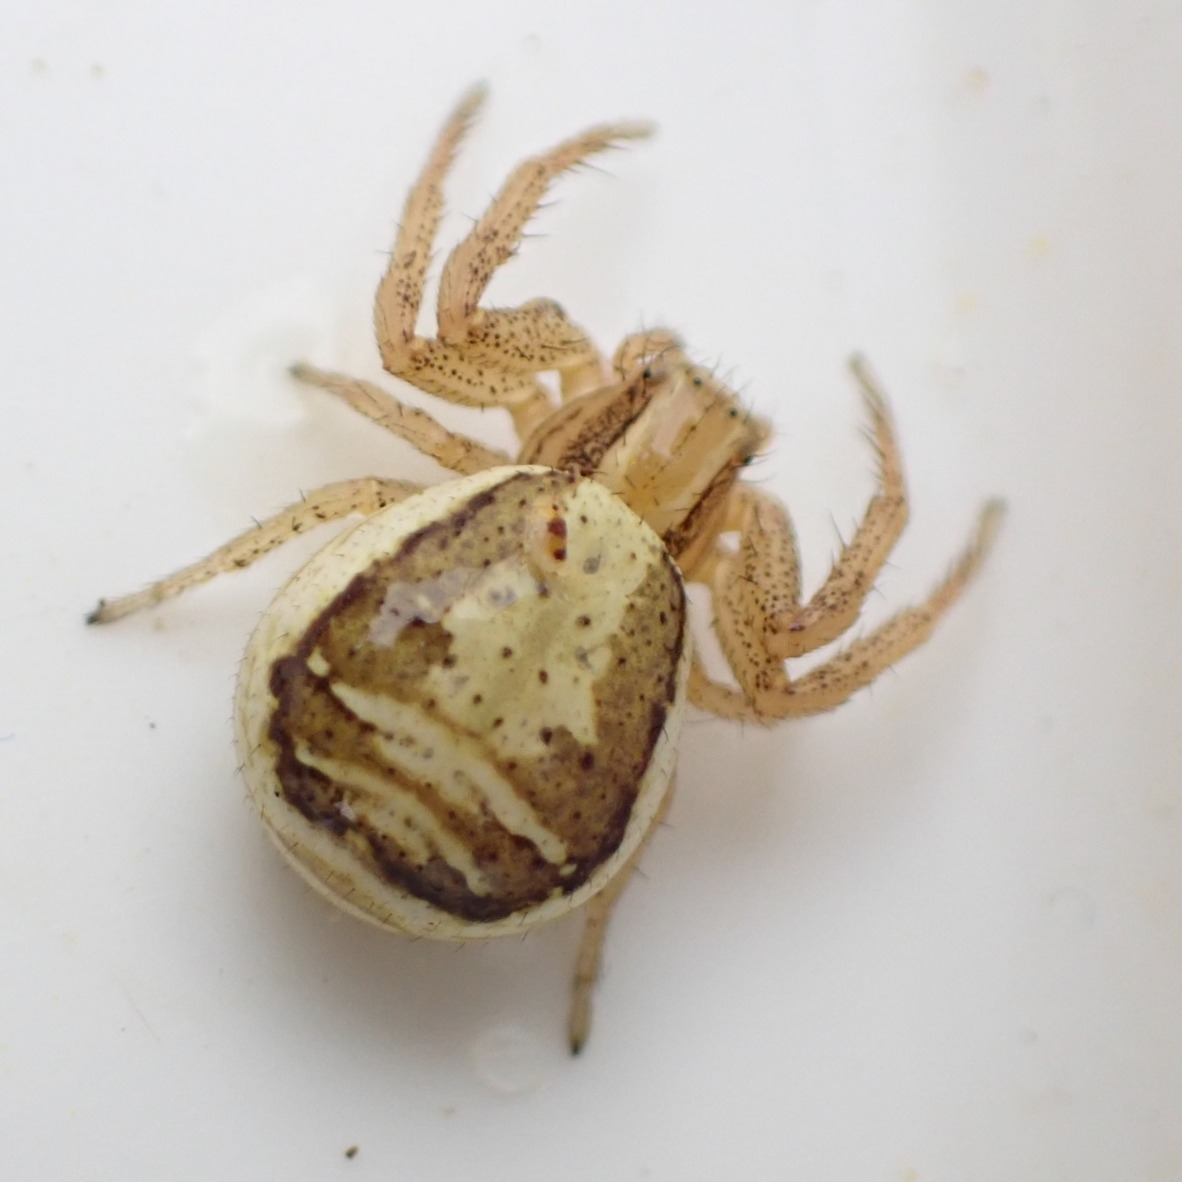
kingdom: Animalia
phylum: Arthropoda
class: Arachnida
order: Araneae
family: Thomisidae
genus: Xysticus
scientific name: Xysticus ulmi
